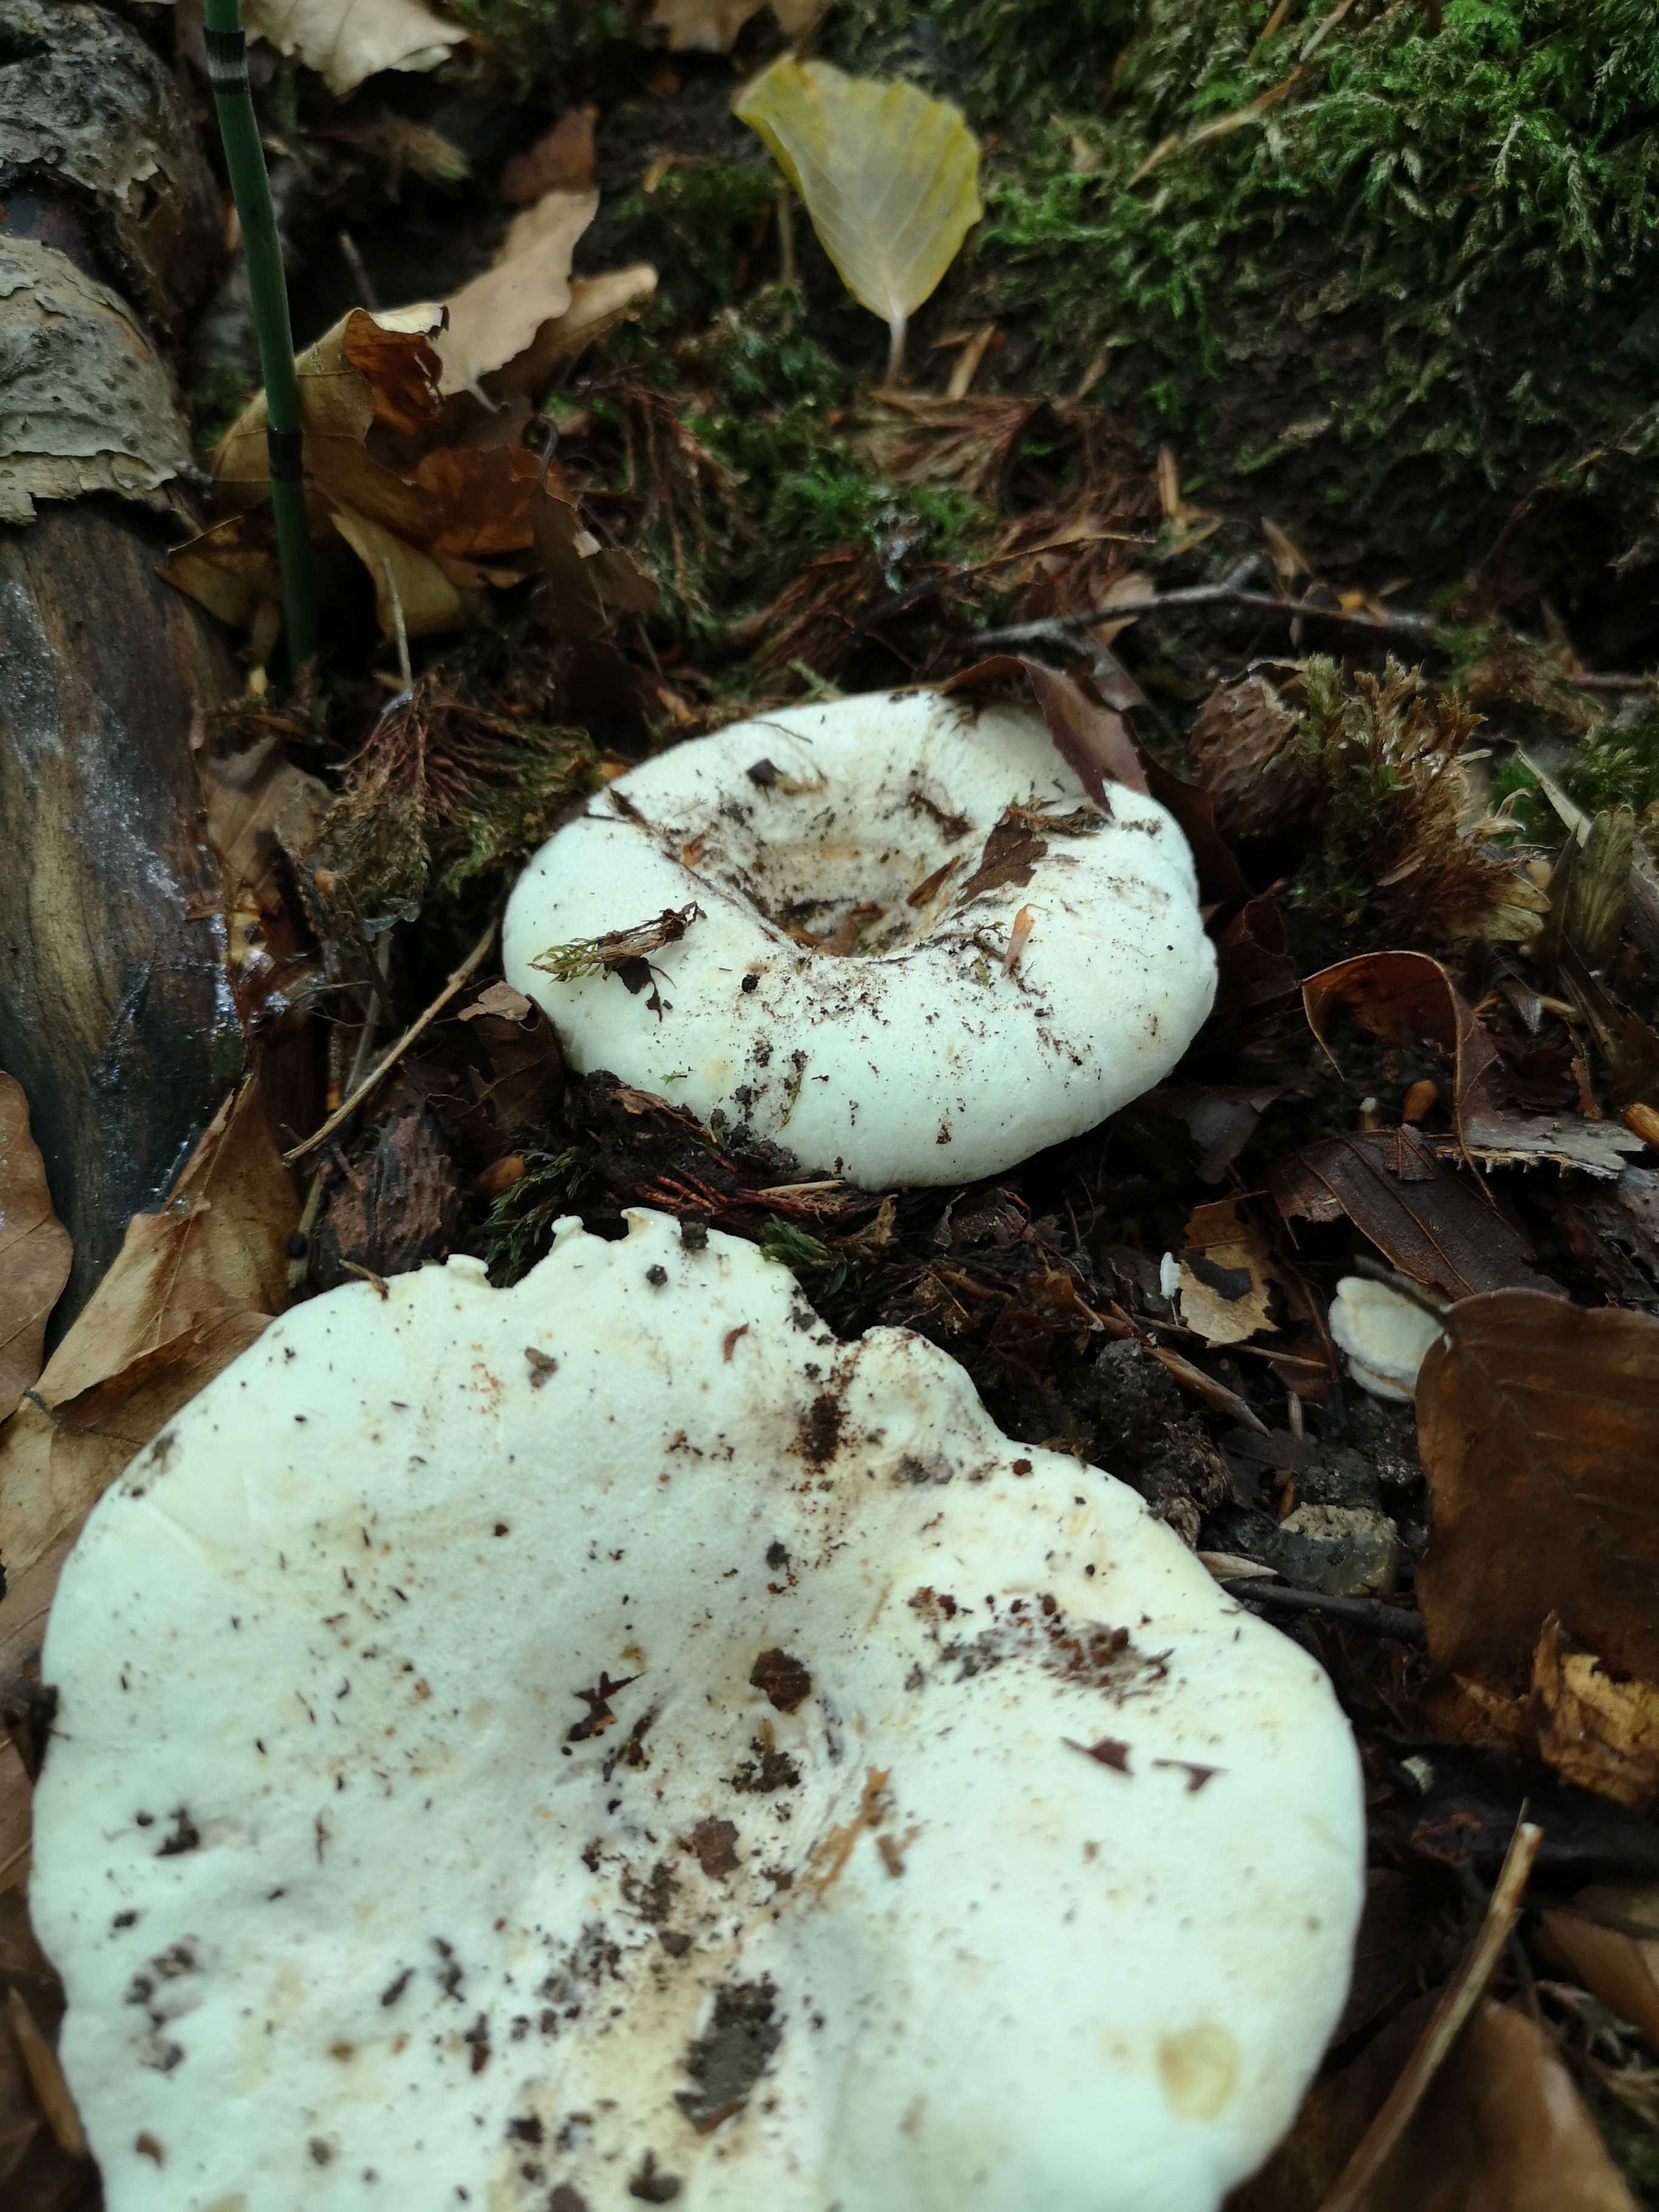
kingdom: Fungi
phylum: Basidiomycota
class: Agaricomycetes
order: Russulales
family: Russulaceae
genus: Lactifluus
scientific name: Lactifluus
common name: mælkehat
